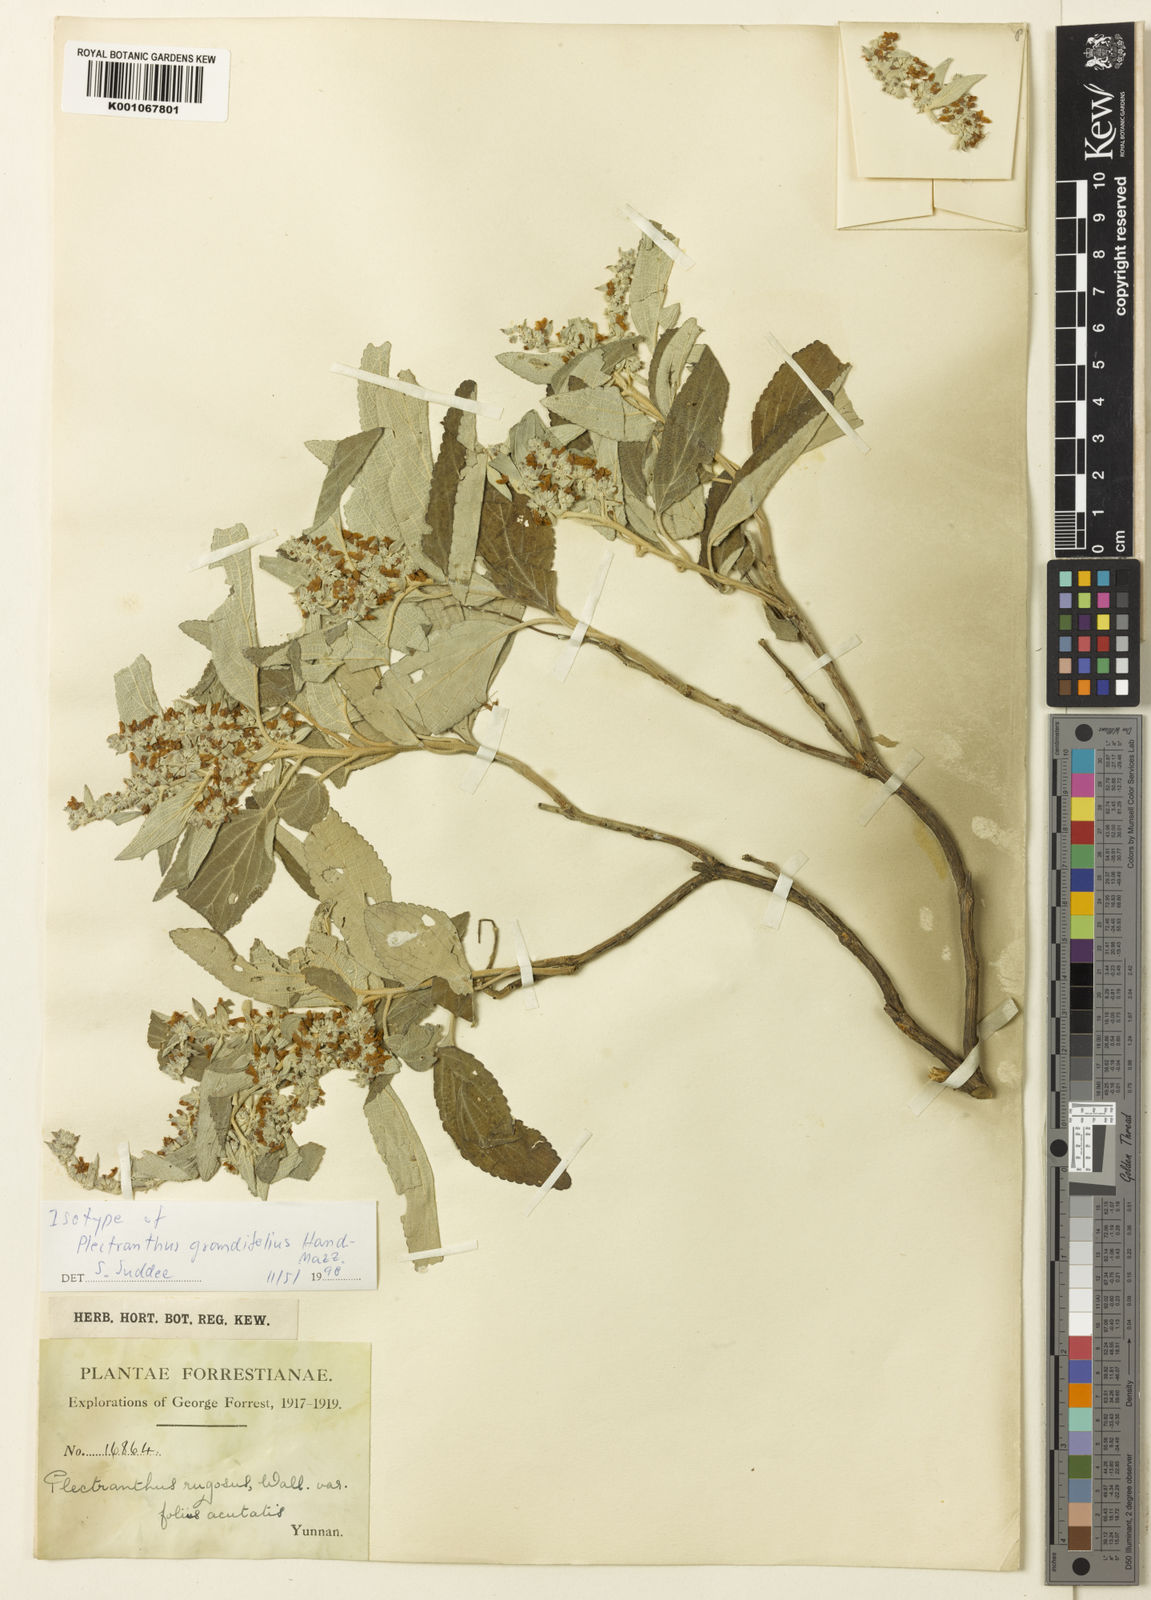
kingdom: Plantae
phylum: Tracheophyta
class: Magnoliopsida
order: Lamiales
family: Lamiaceae
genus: Isodon
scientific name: Isodon grandifolius
